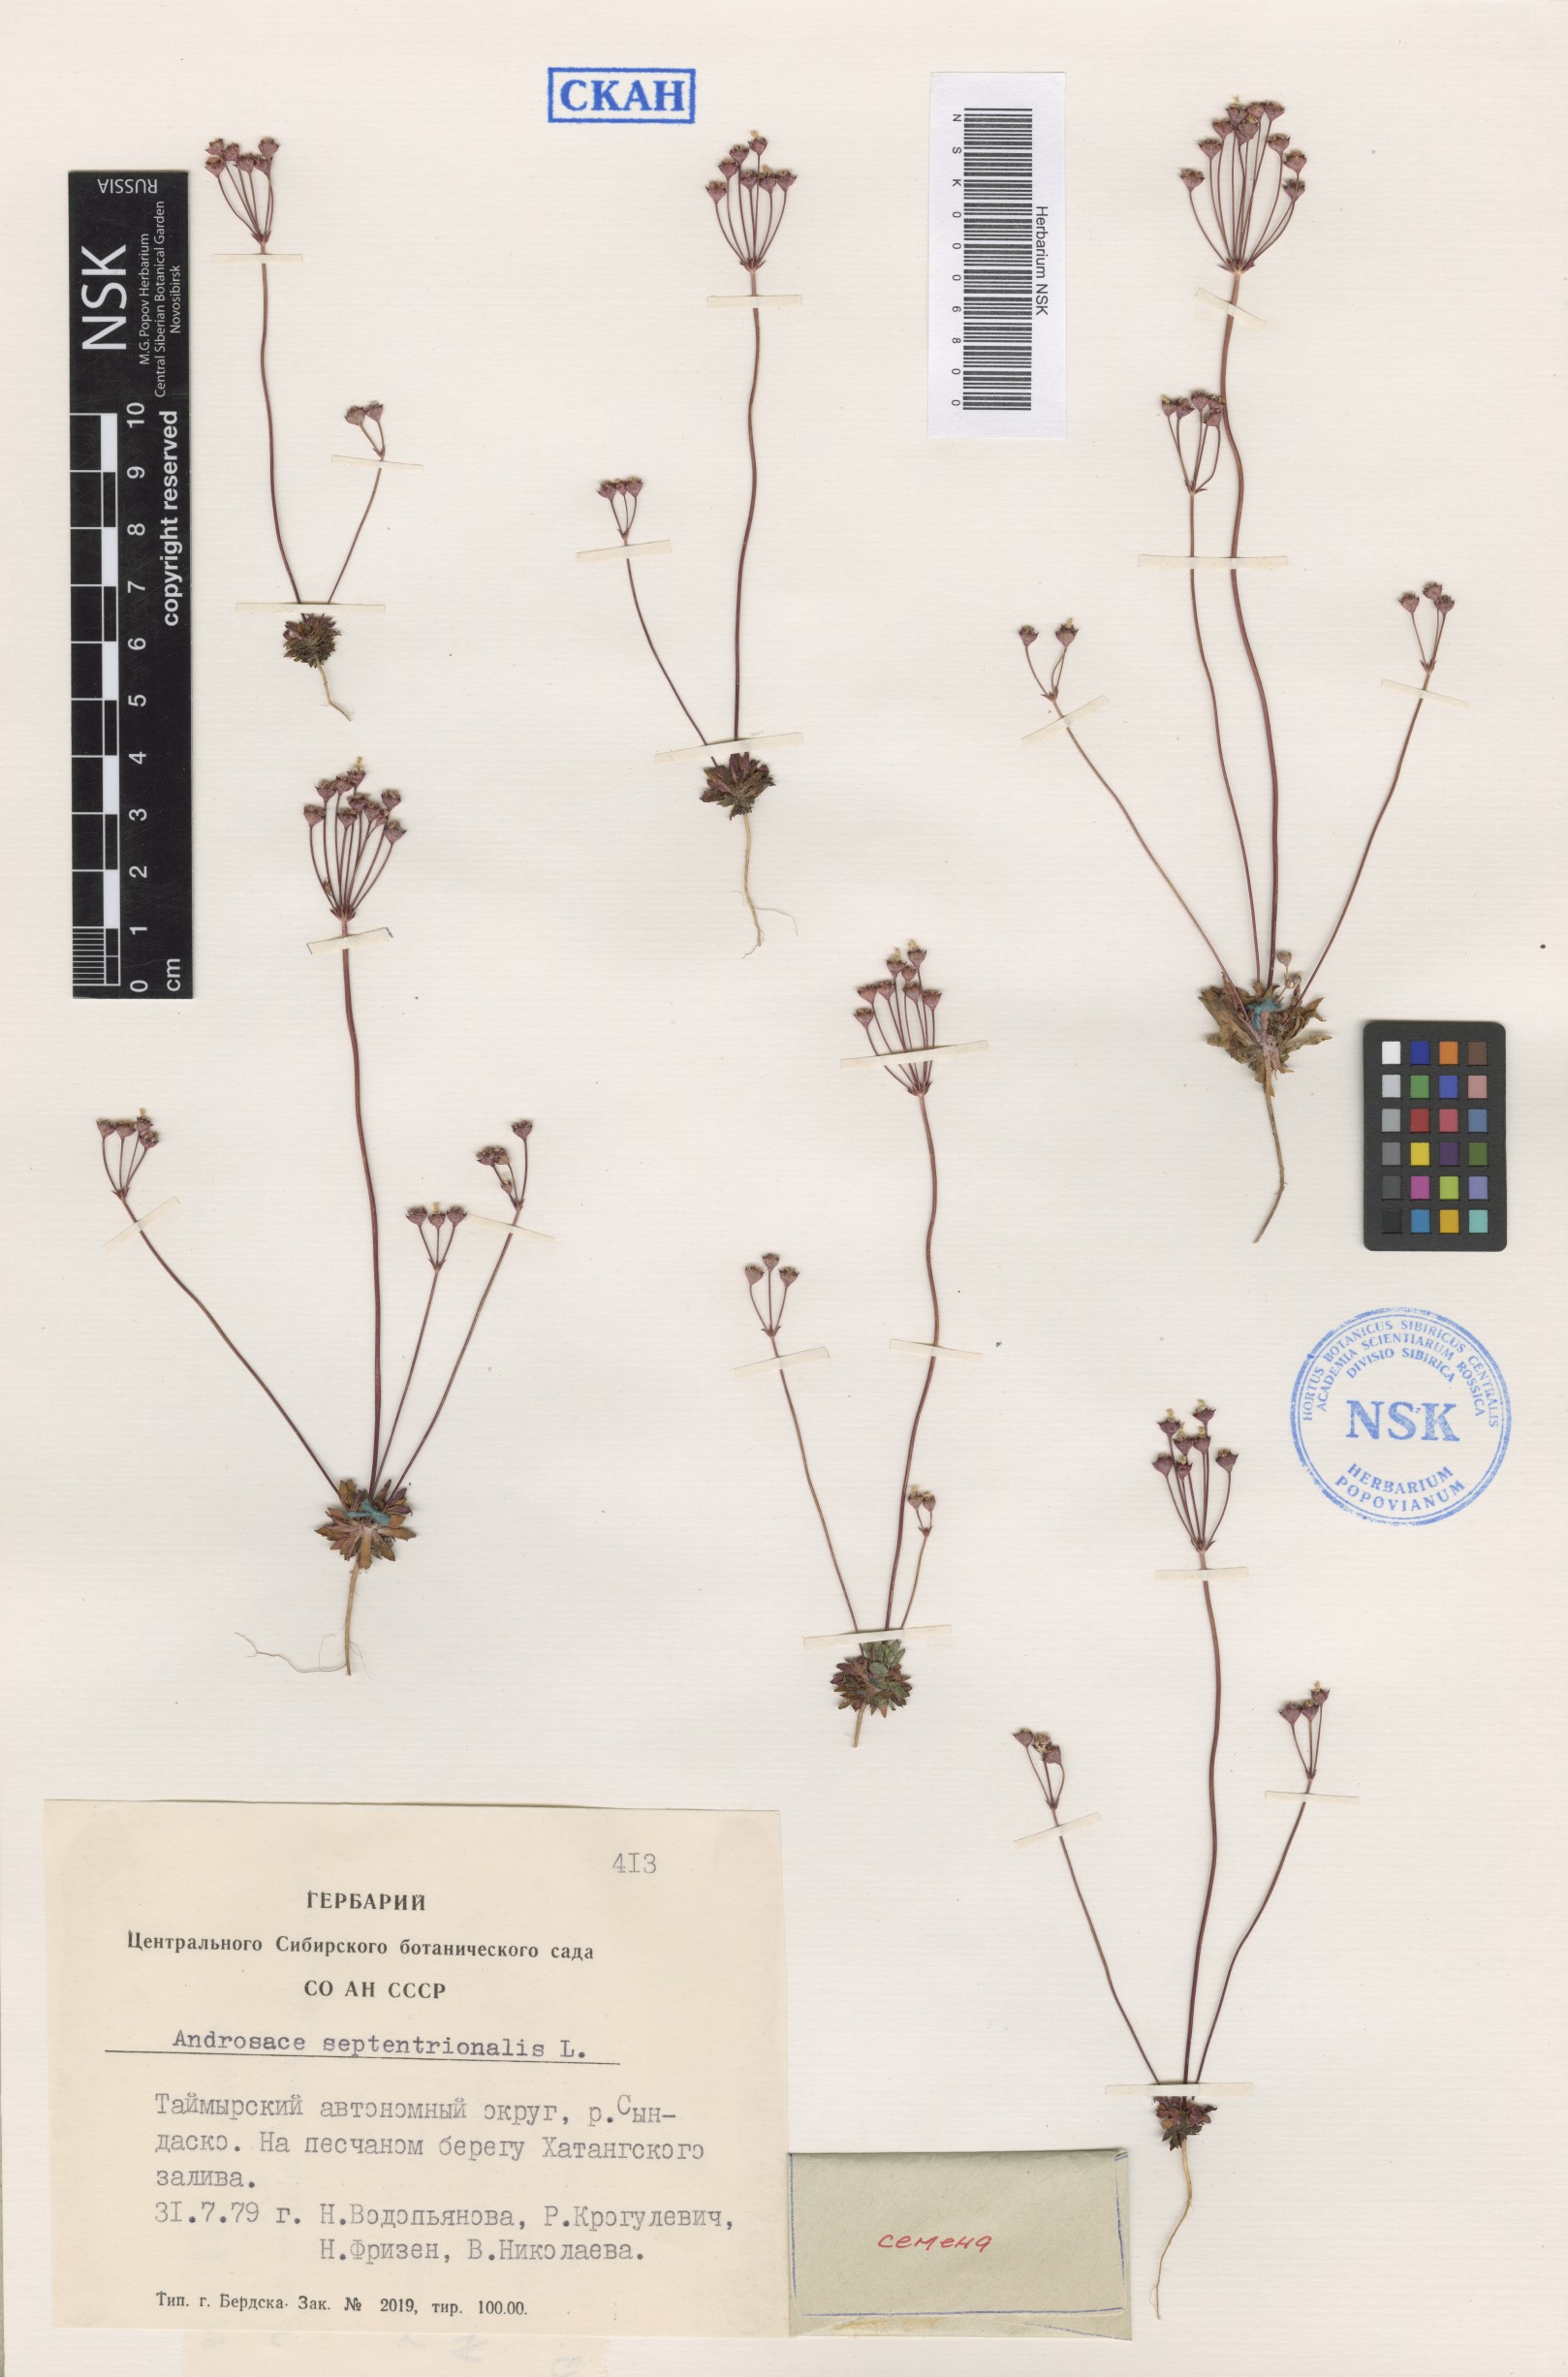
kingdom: Plantae
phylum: Tracheophyta
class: Magnoliopsida
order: Ericales
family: Primulaceae
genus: Androsace
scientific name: Androsace septentrionalis
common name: Hairy northern fairy-candelabra
